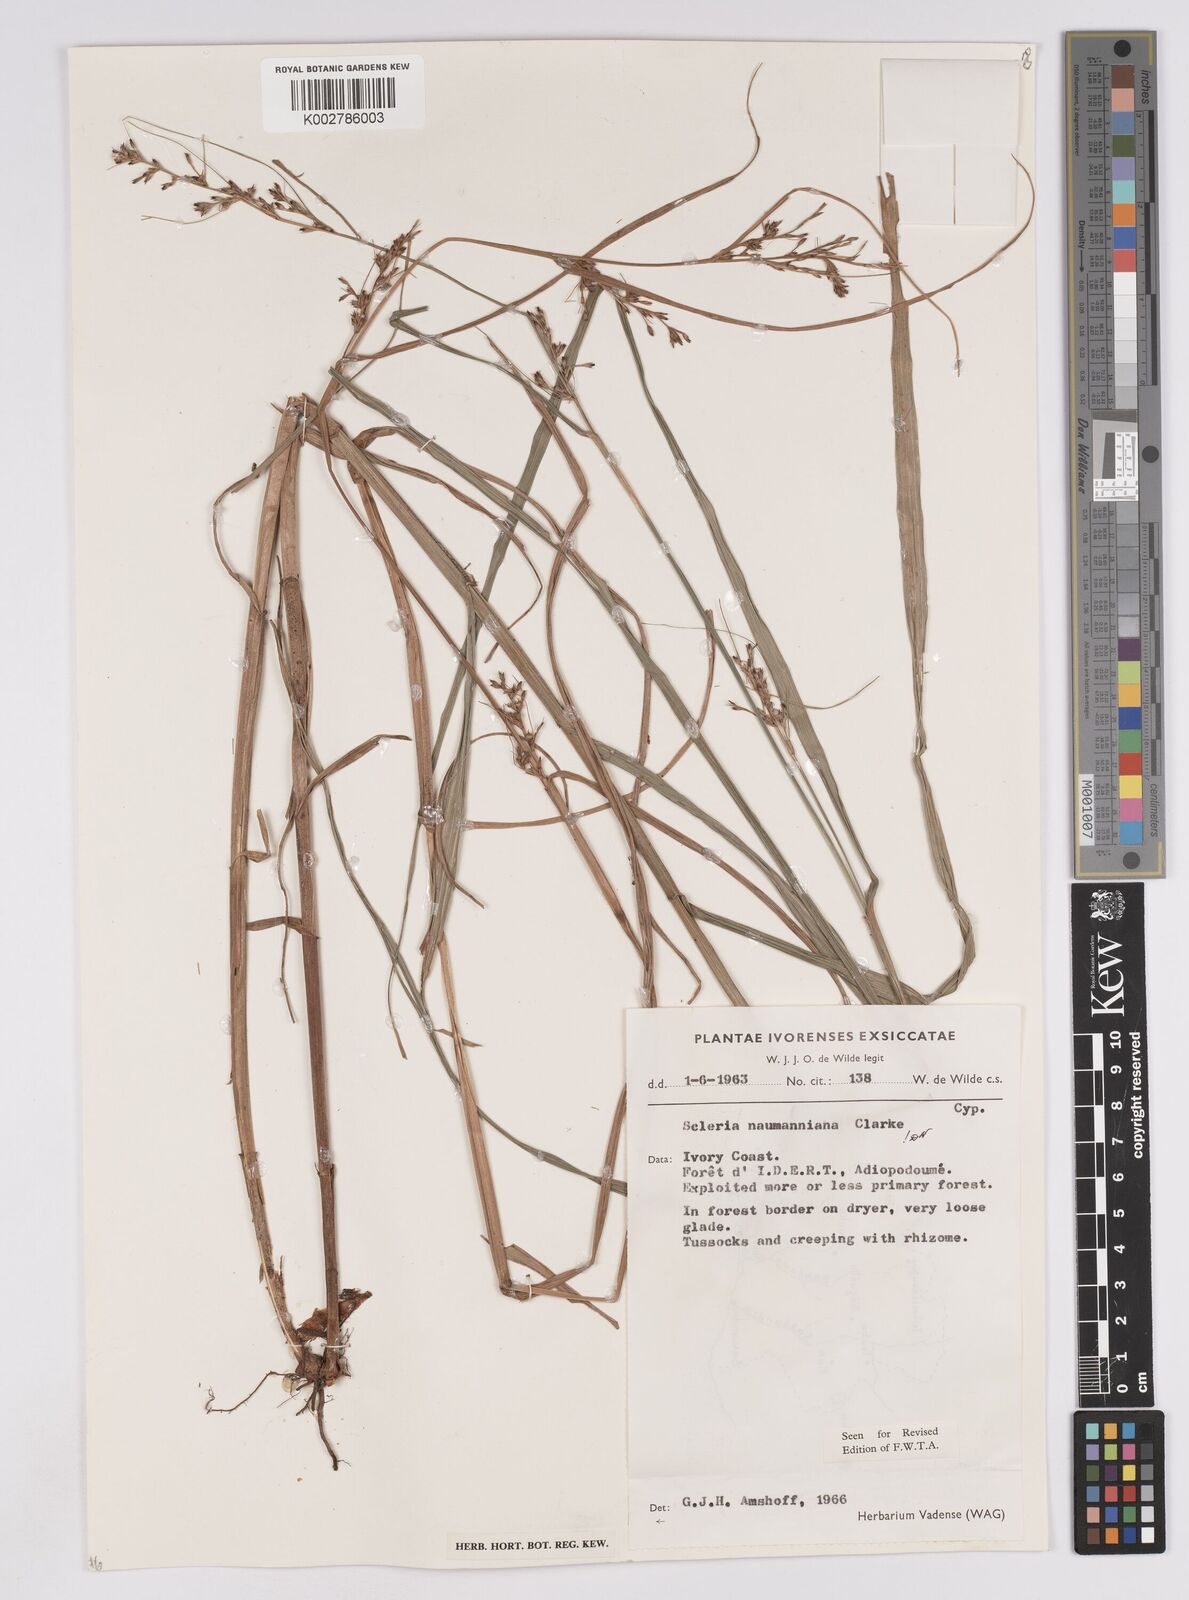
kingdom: Plantae
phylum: Tracheophyta
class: Liliopsida
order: Poales
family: Cyperaceae
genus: Scleria
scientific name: Scleria naumanniana
